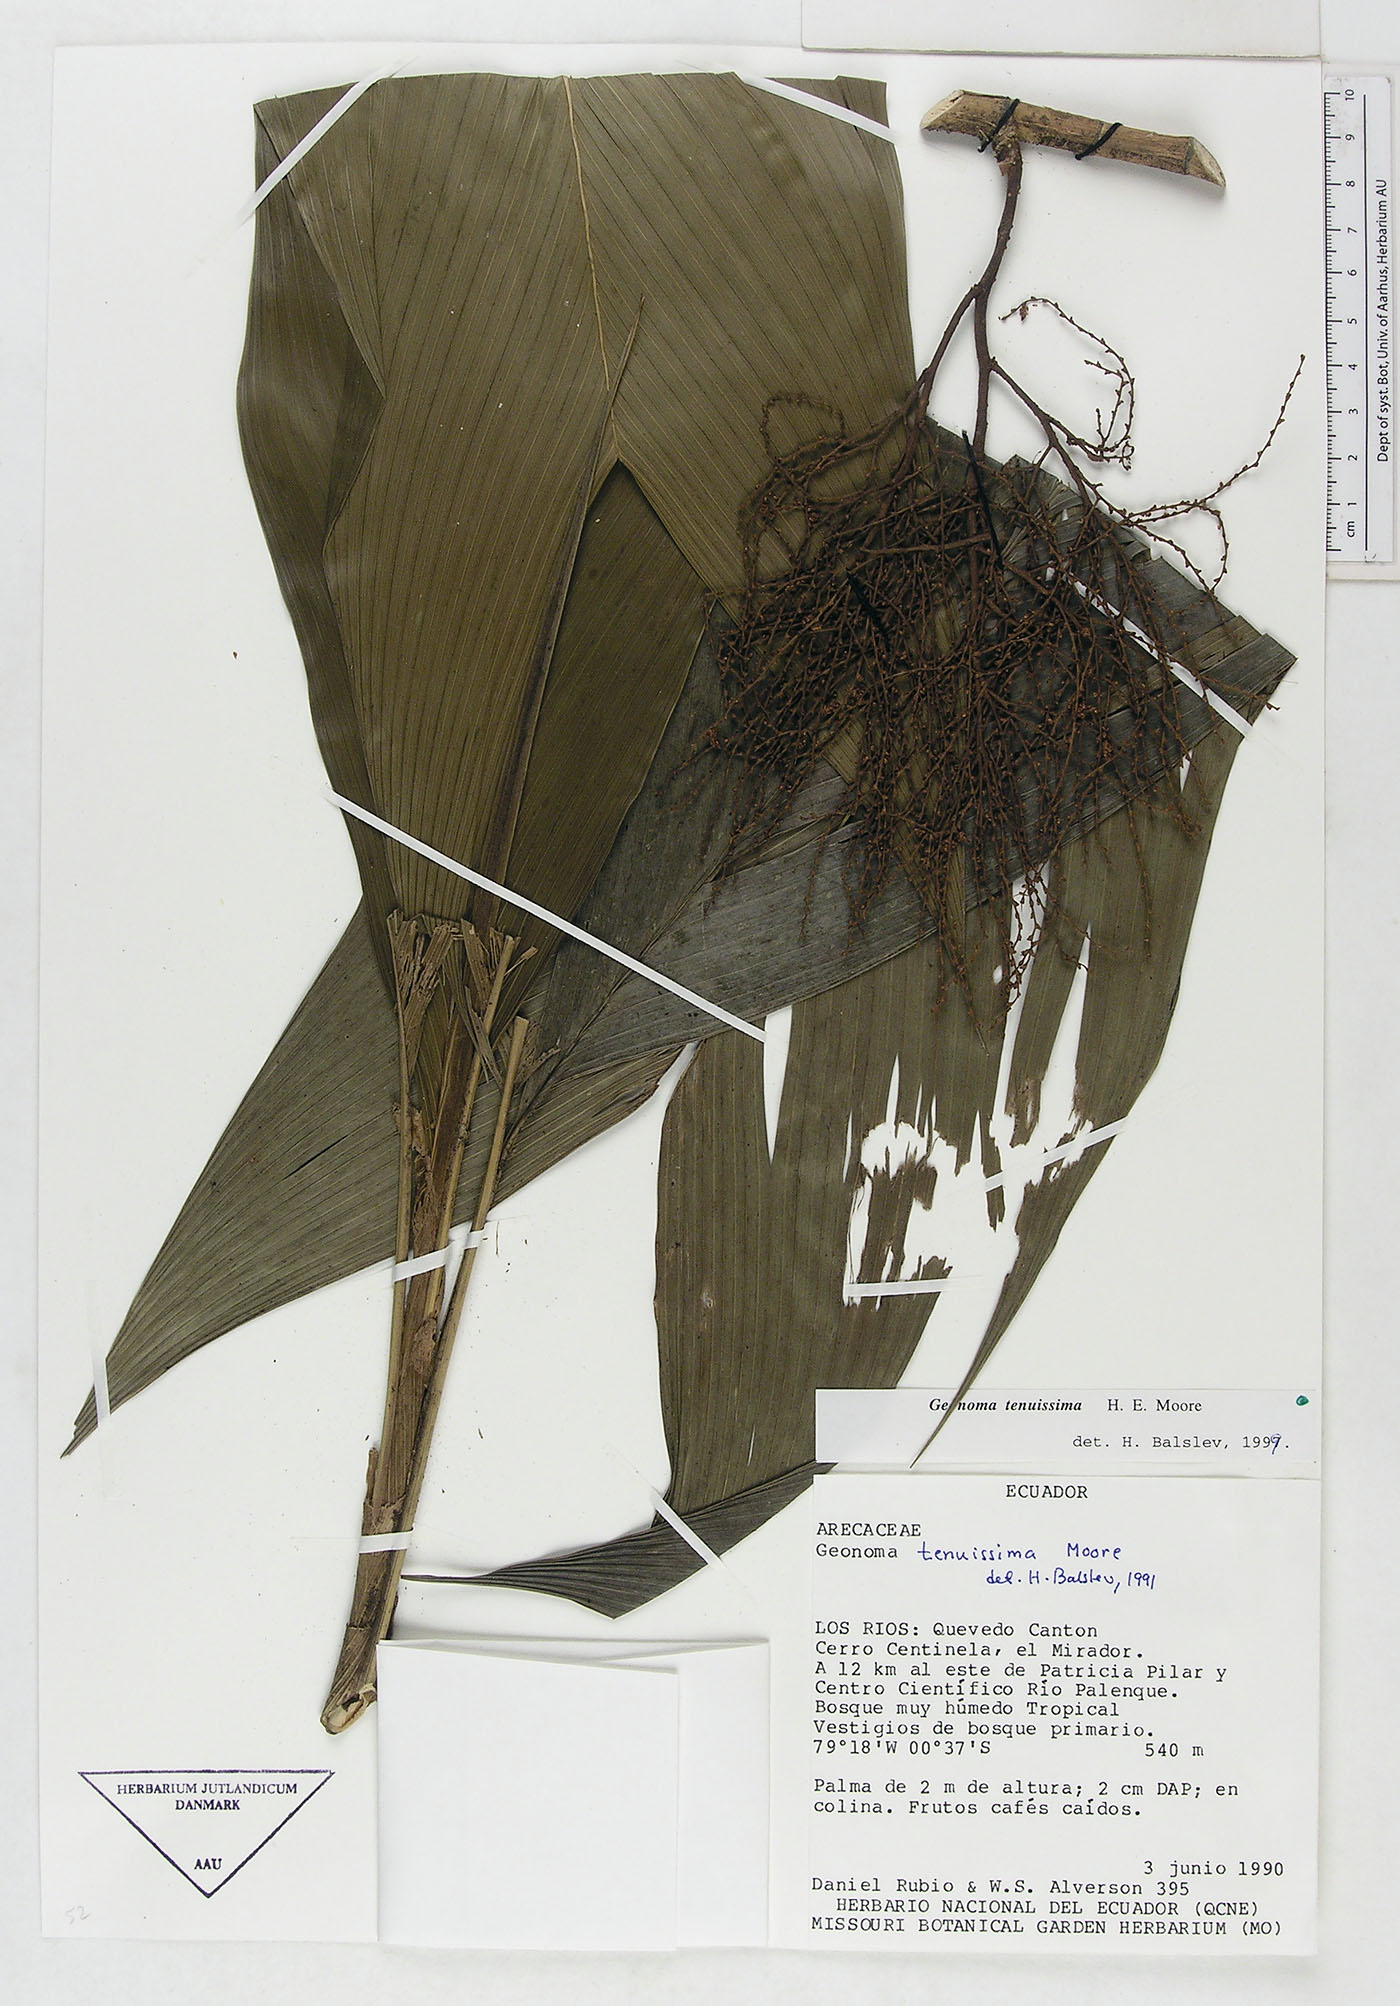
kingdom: Plantae
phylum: Tracheophyta
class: Liliopsida
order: Arecales
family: Arecaceae
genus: Geonoma
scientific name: Geonoma tenuissima
